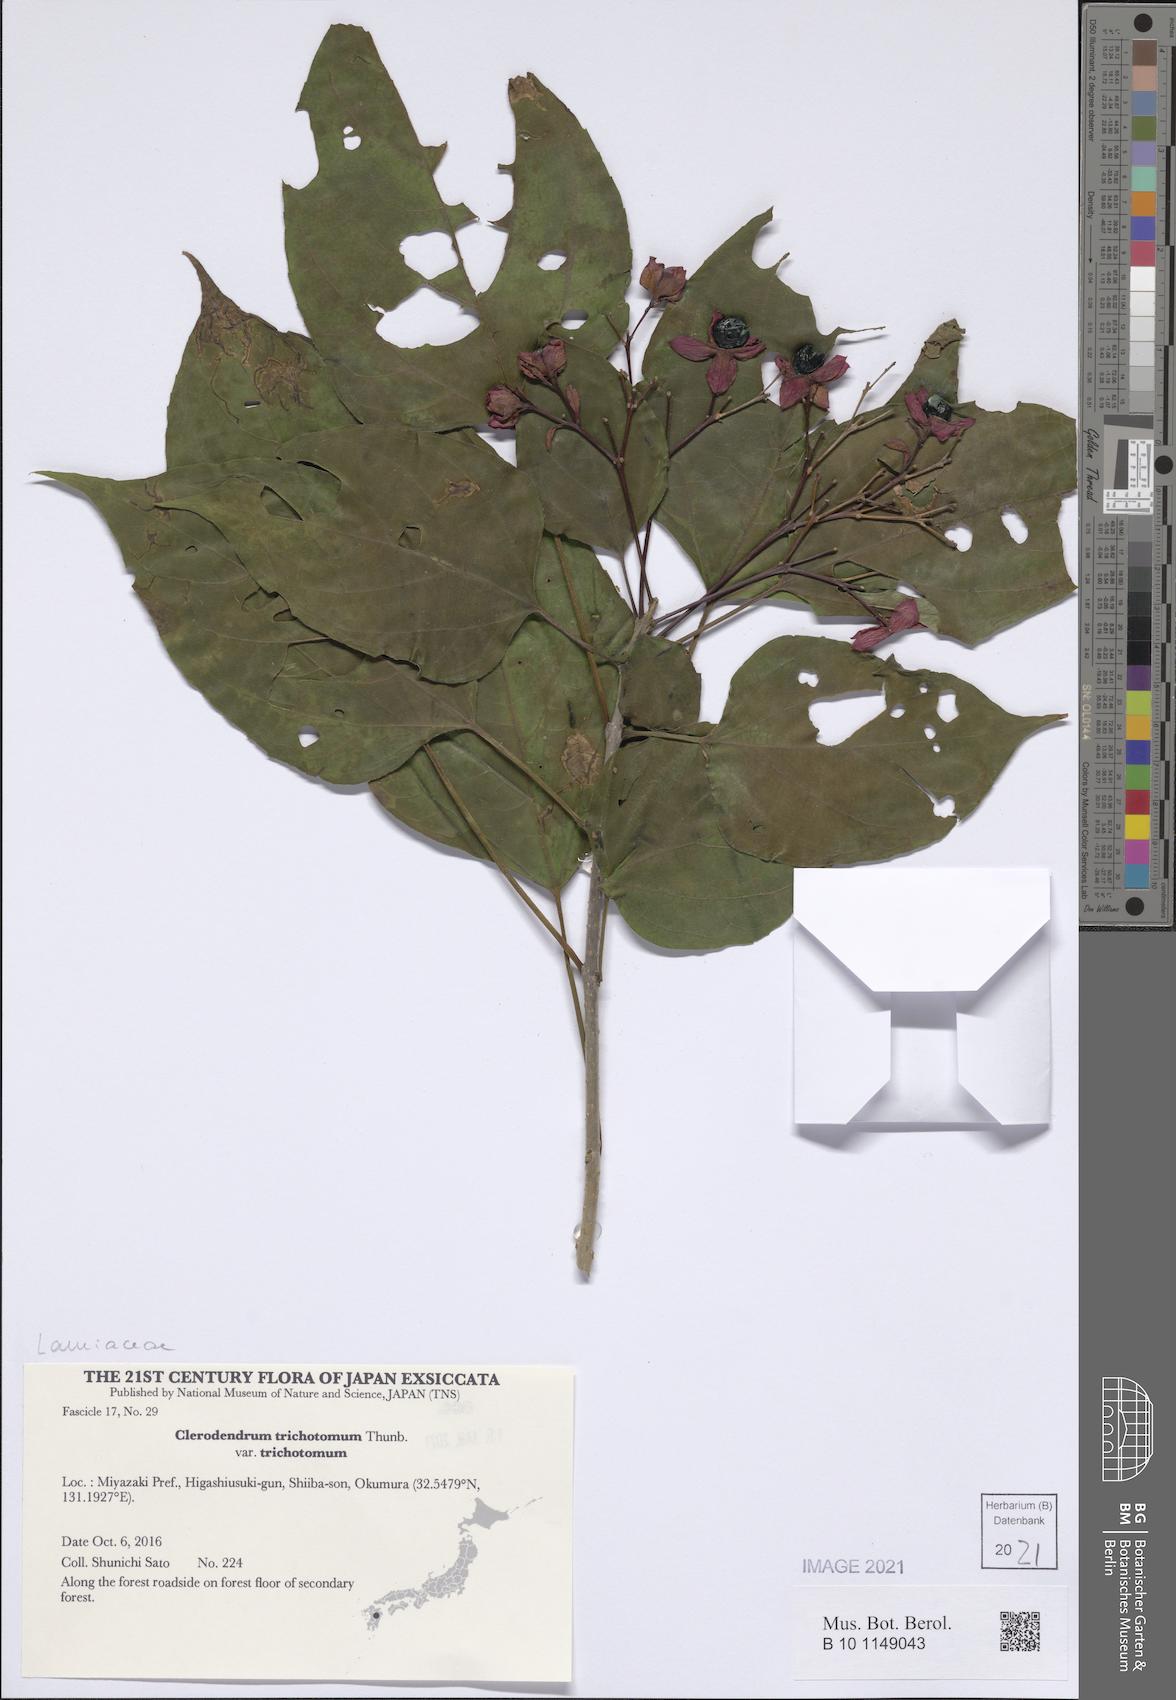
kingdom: Plantae
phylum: Tracheophyta
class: Magnoliopsida
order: Lamiales
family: Lamiaceae
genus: Clerodendrum
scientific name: Clerodendrum trichotomum
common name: Harlequin glorybower
